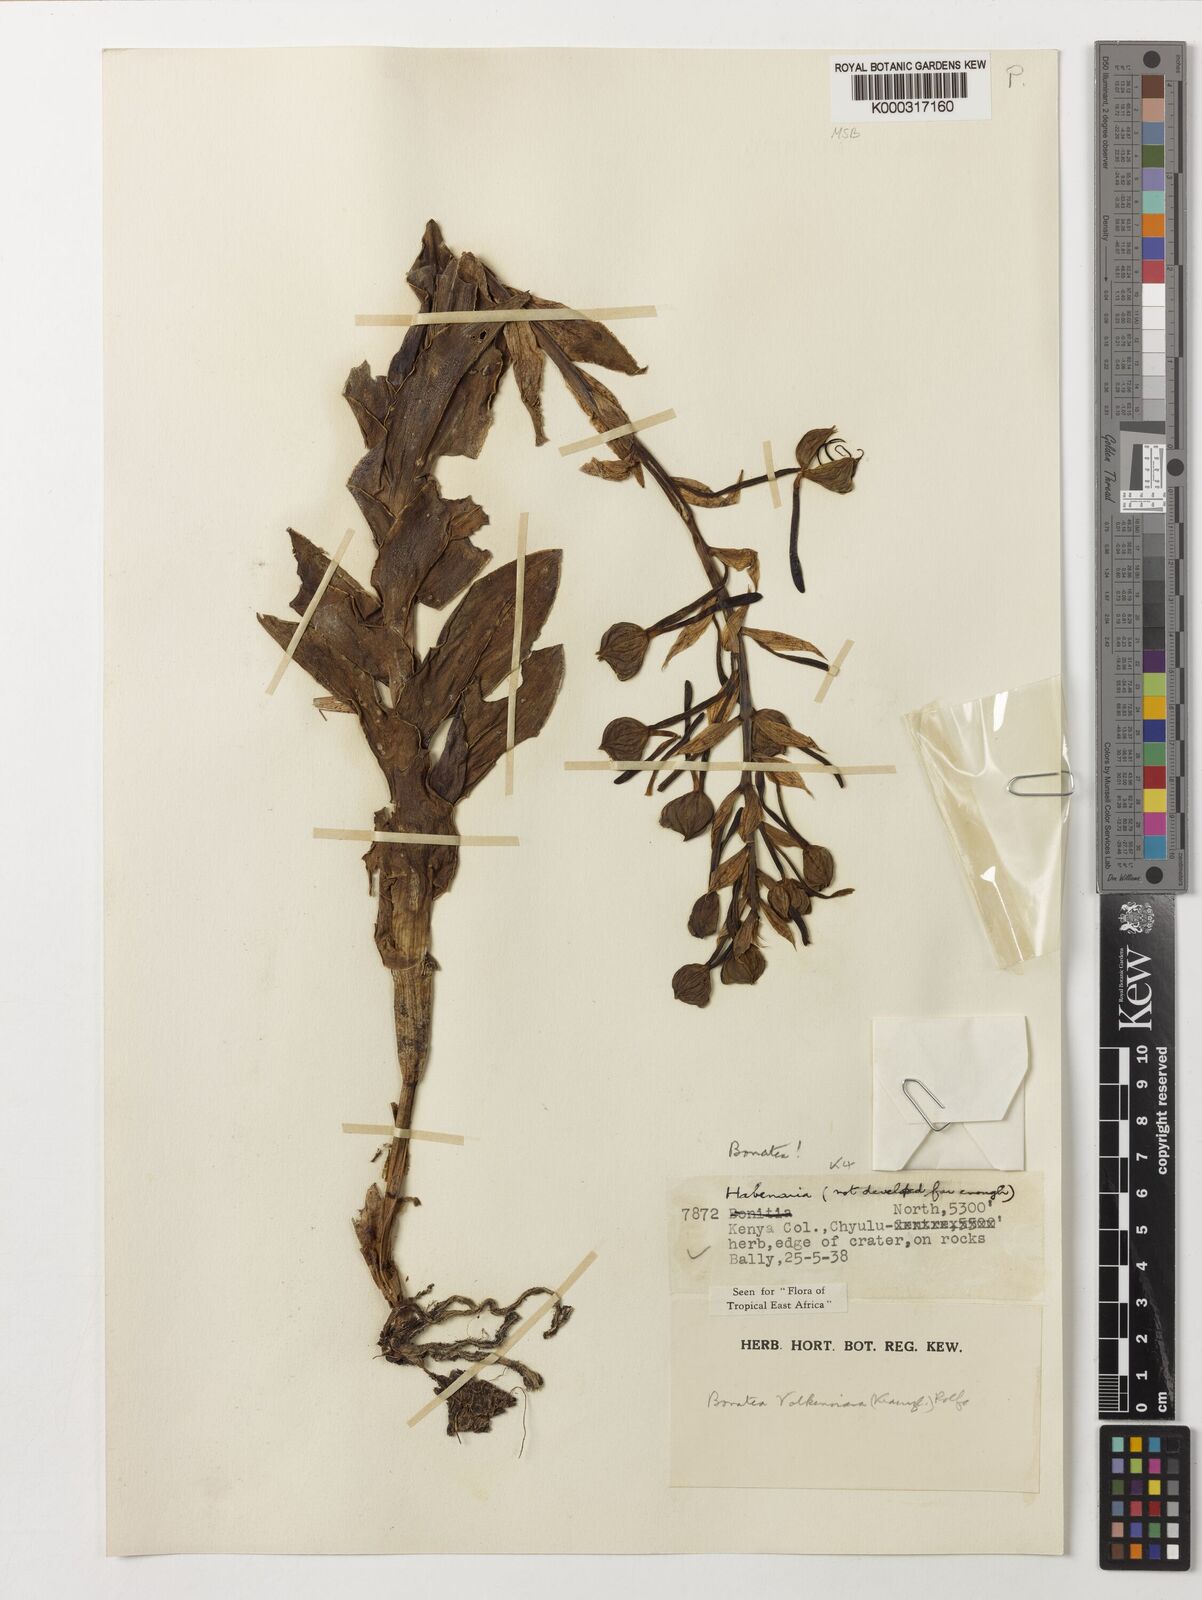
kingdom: Plantae
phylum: Tracheophyta
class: Liliopsida
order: Asparagales
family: Orchidaceae
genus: Bonatea
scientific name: Bonatea volkensiana
